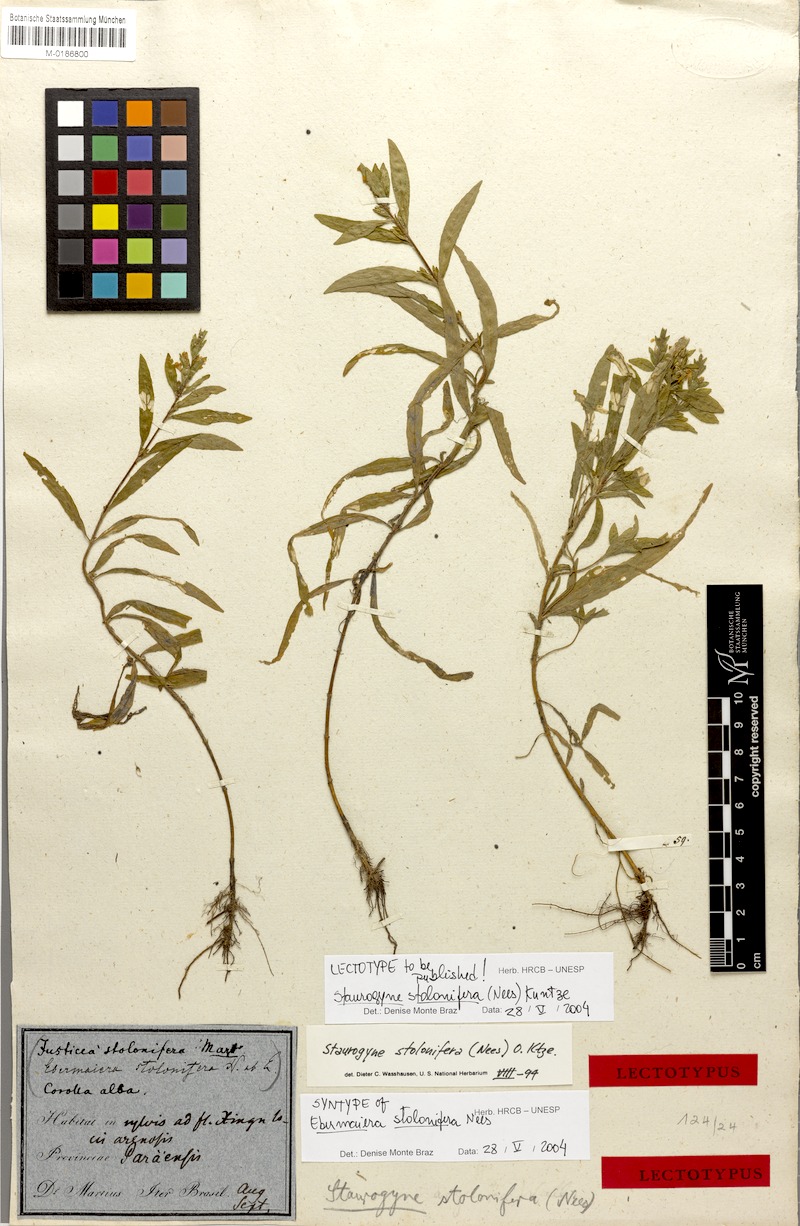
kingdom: Plantae
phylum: Tracheophyta
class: Magnoliopsida
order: Lamiales
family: Acanthaceae
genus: Staurogyne
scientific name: Staurogyne stolonifera
